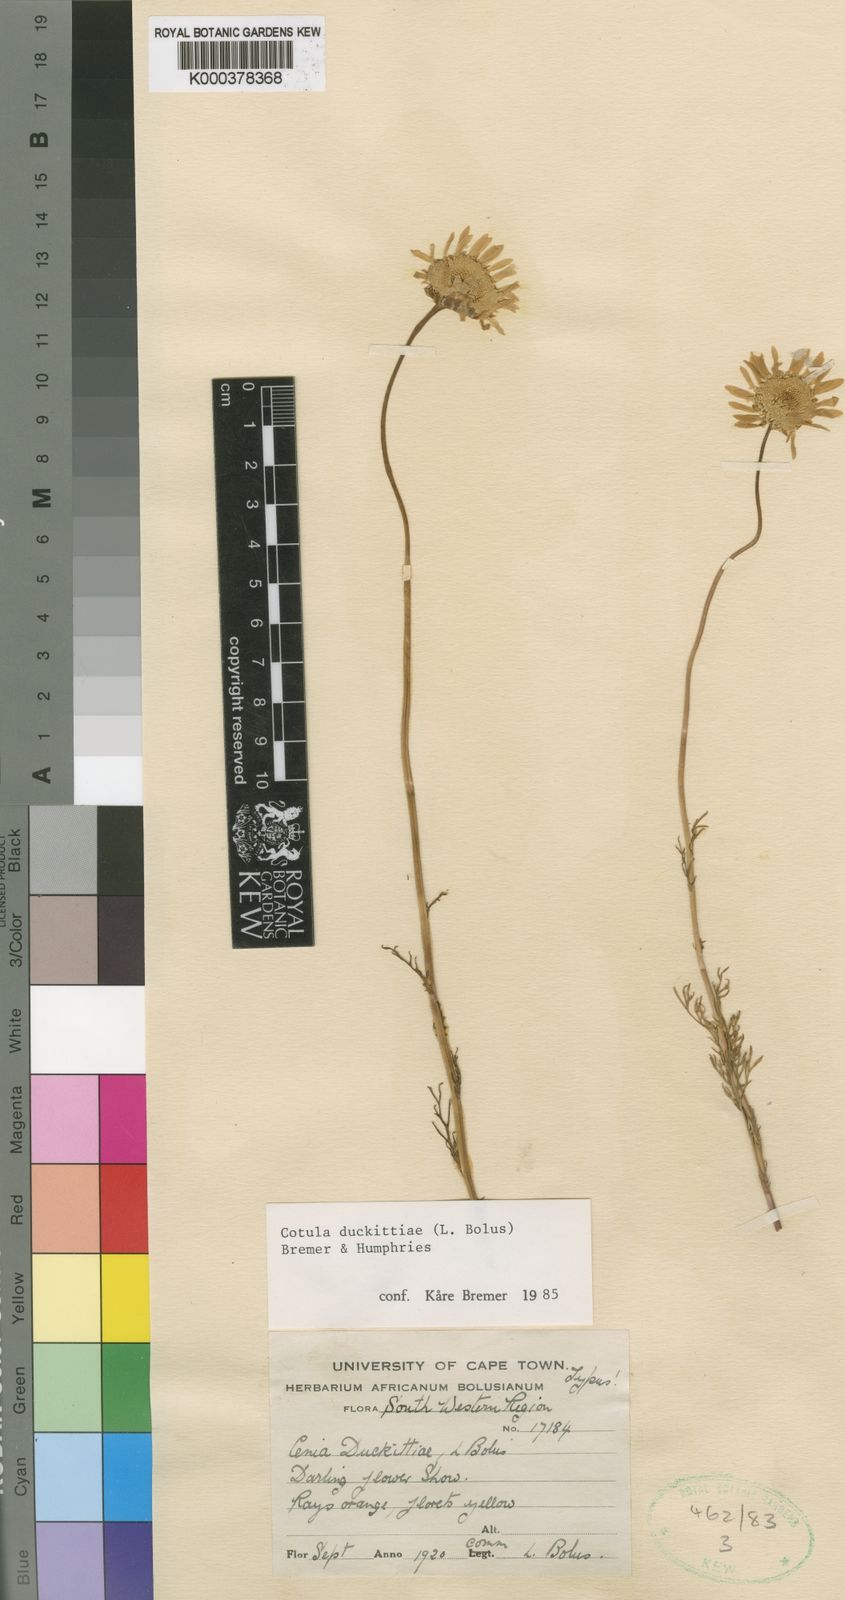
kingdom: Plantae
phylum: Tracheophyta
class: Magnoliopsida
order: Asterales
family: Asteraceae
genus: Cotula
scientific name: Cotula duckittiae
